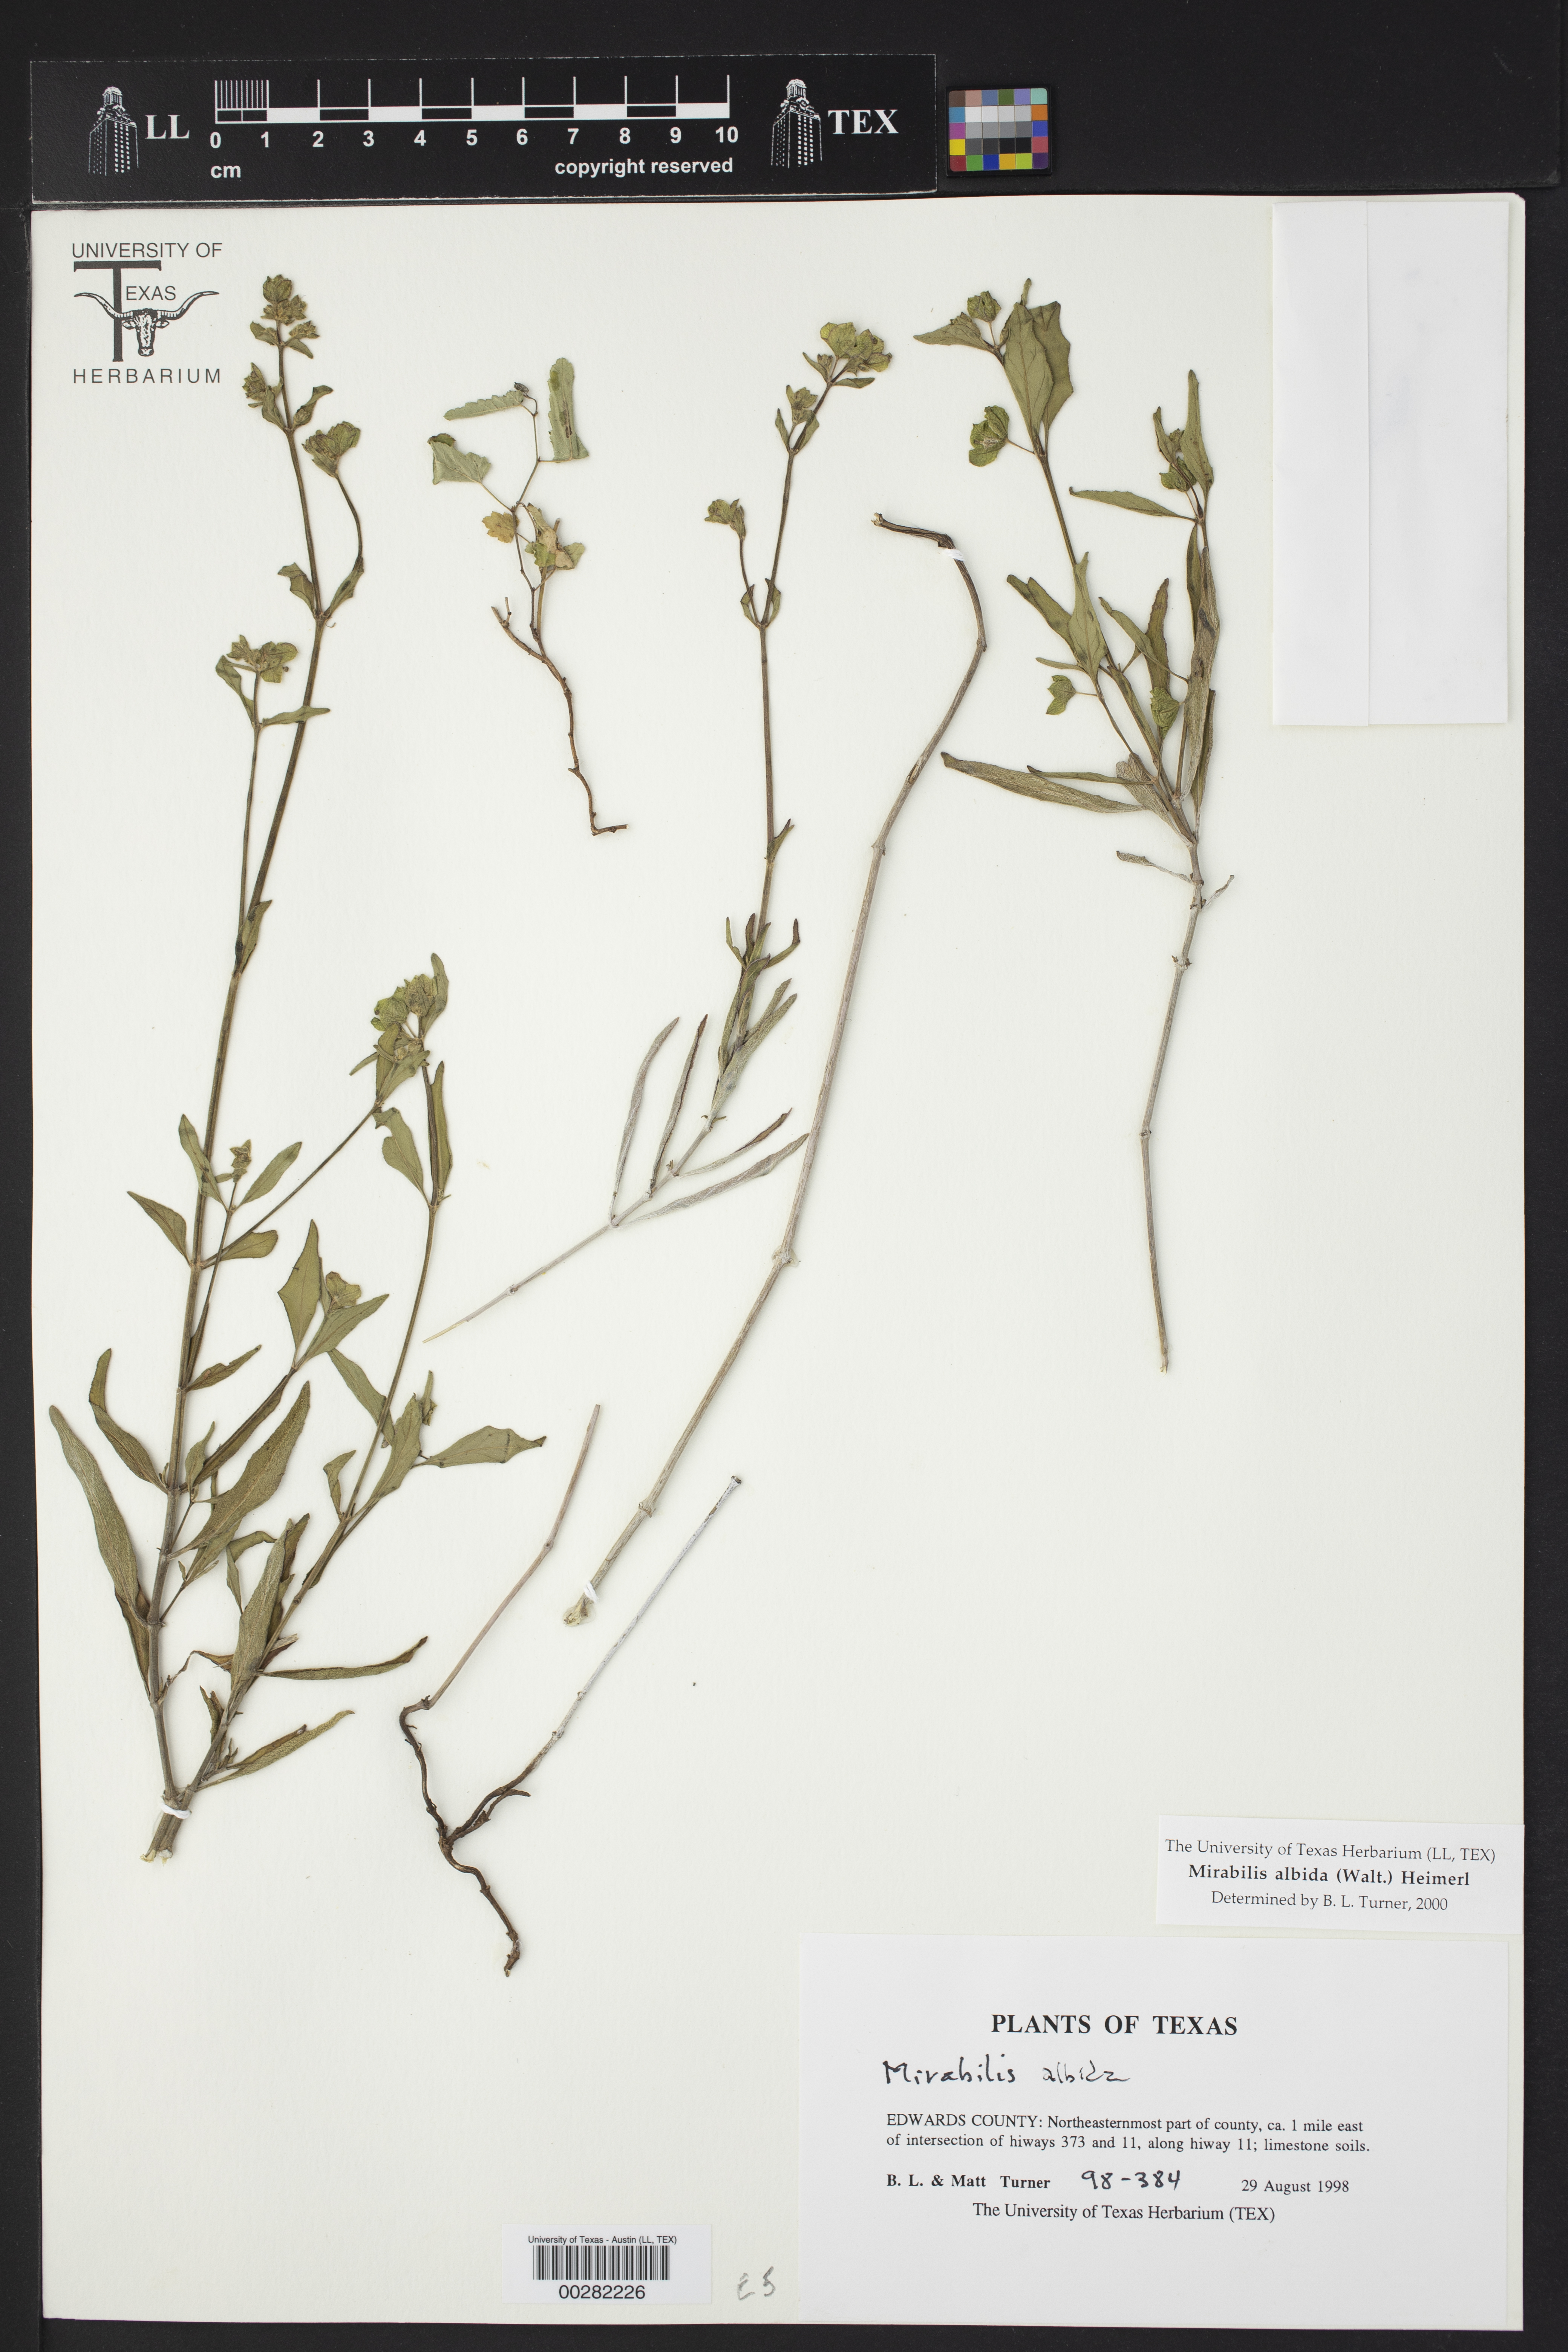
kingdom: Plantae
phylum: Tracheophyta
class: Magnoliopsida
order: Caryophyllales
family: Nyctaginaceae
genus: Mirabilis
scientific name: Mirabilis albida
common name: Hairy four-o'clock
